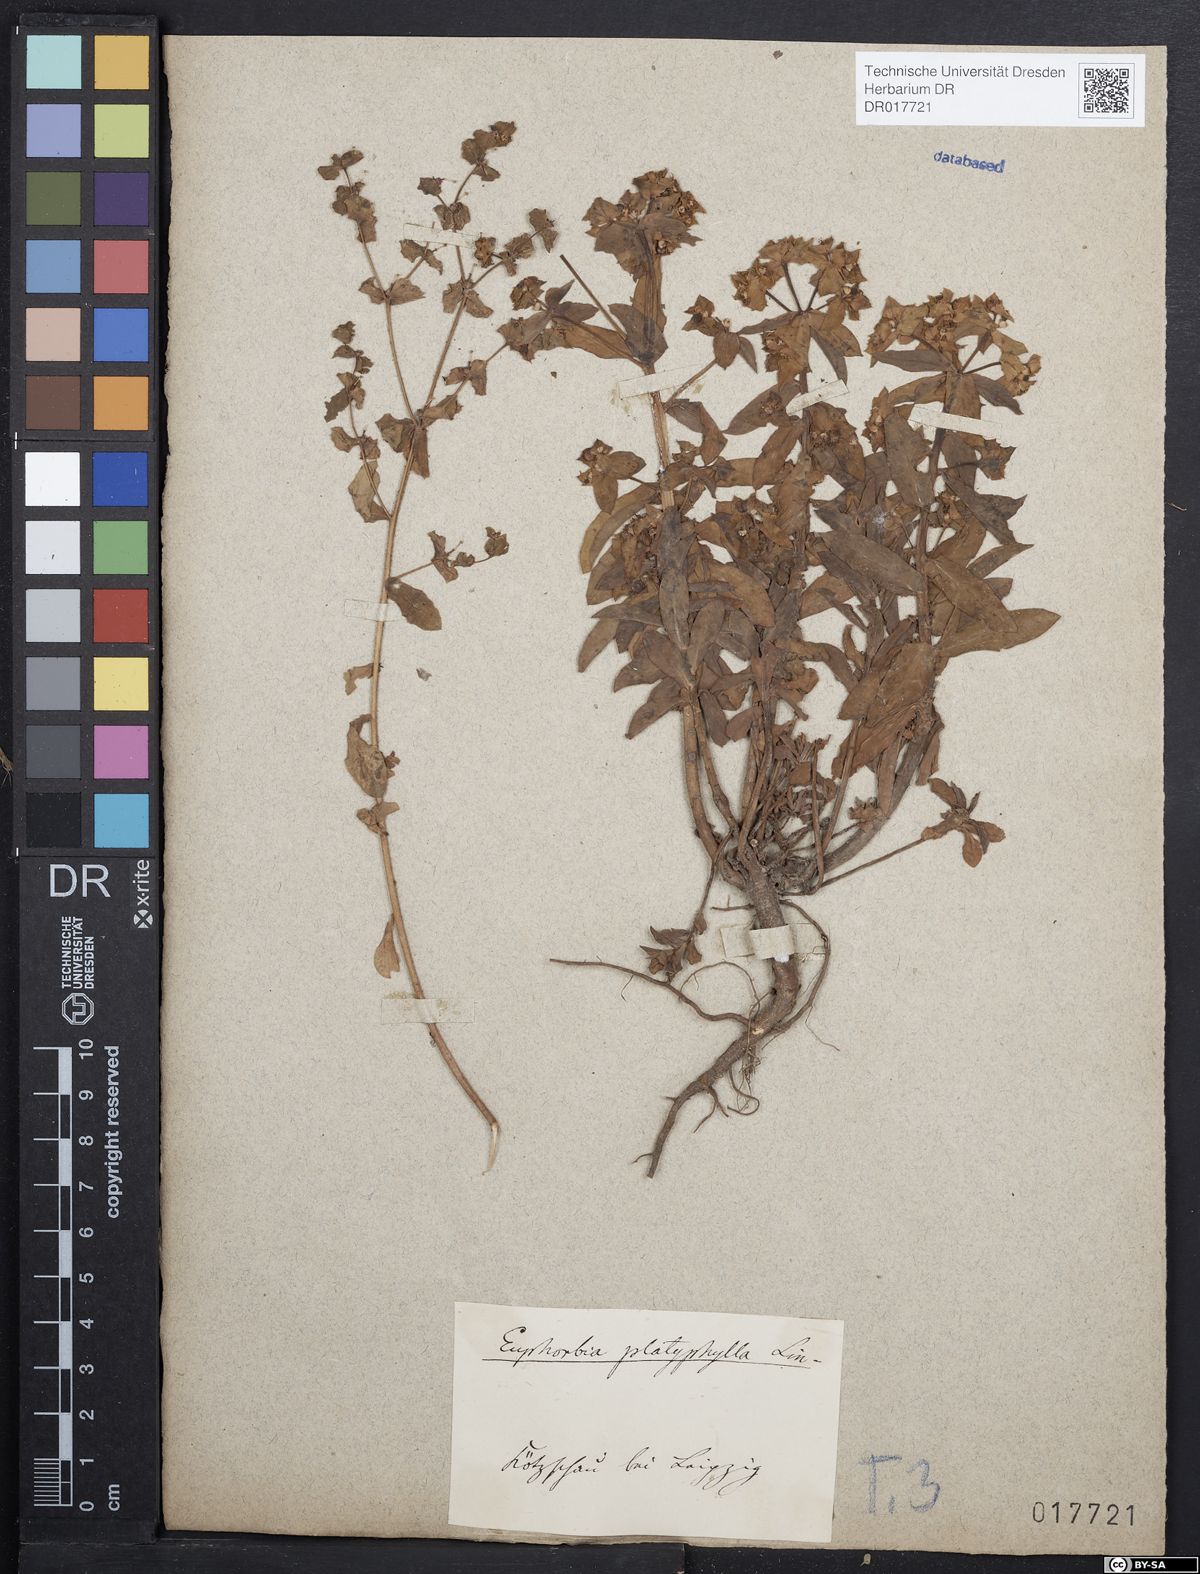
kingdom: Plantae
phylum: Tracheophyta
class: Magnoliopsida
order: Malpighiales
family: Euphorbiaceae
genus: Euphorbia
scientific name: Euphorbia platyphyllos
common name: Broad-leaved spurge
